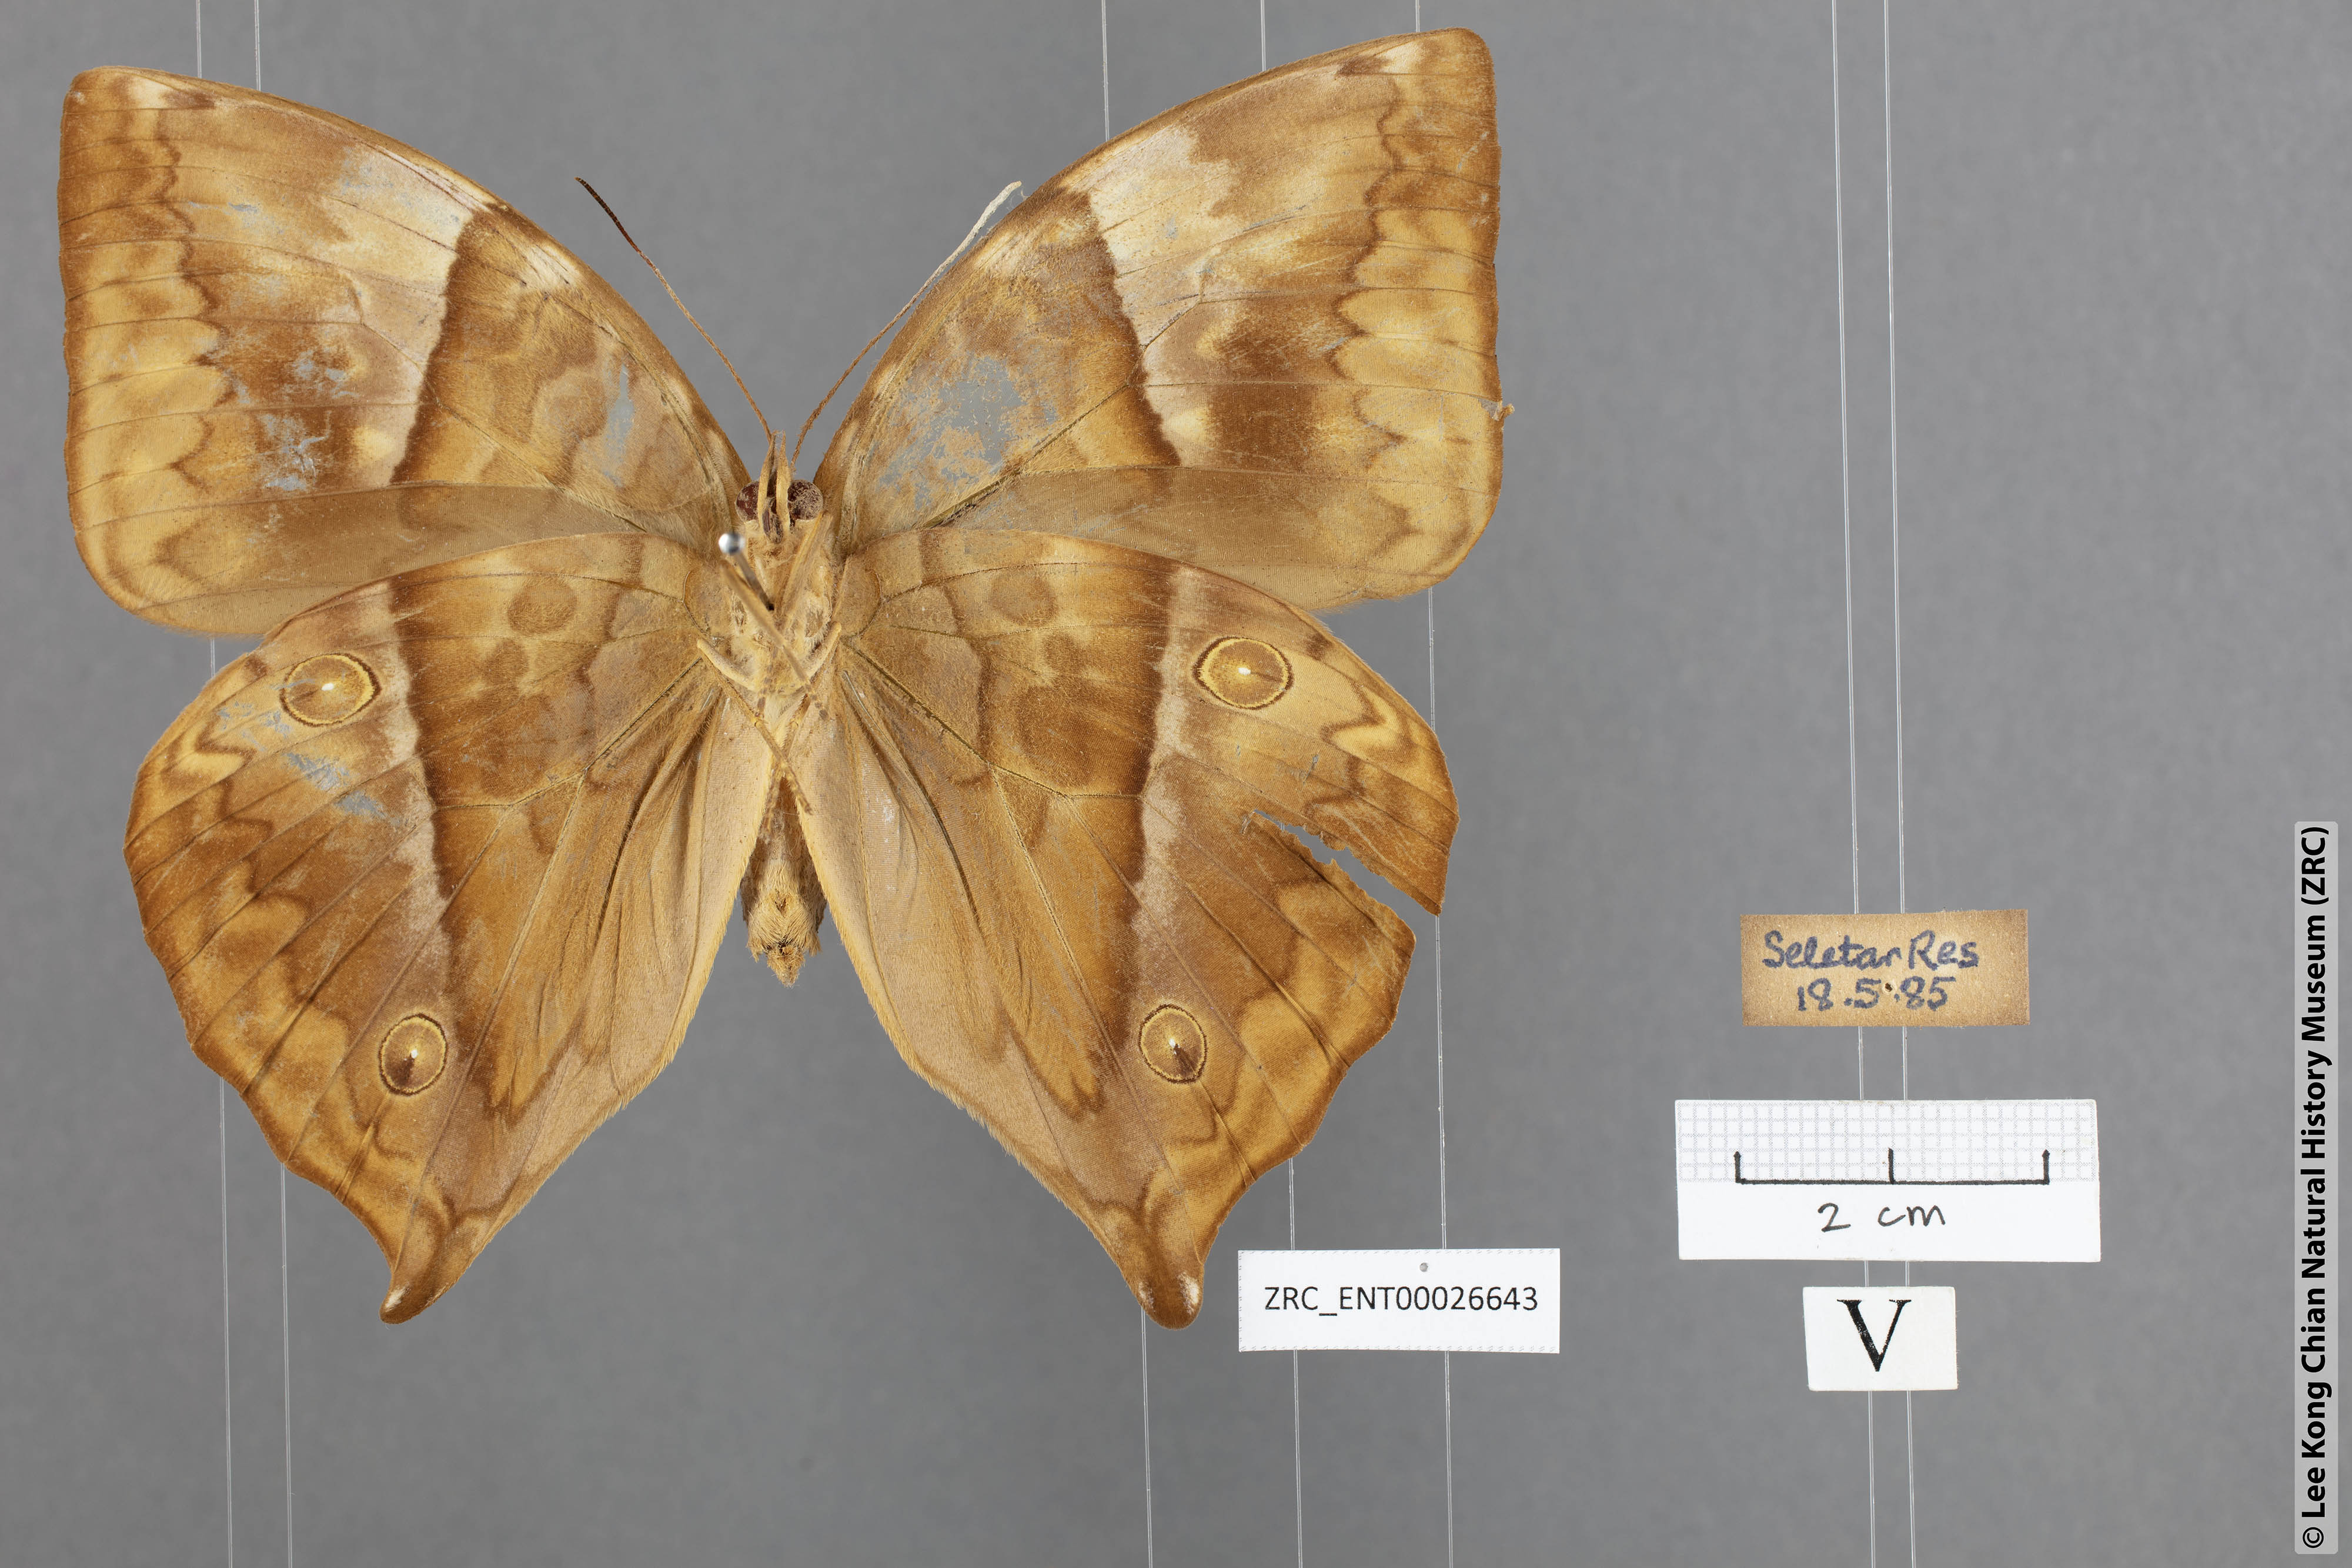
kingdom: Animalia
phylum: Arthropoda
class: Insecta
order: Lepidoptera
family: Nymphalidae
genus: Amathuxidia
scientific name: Amathuxidia amythaon
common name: Koh-i-noor
